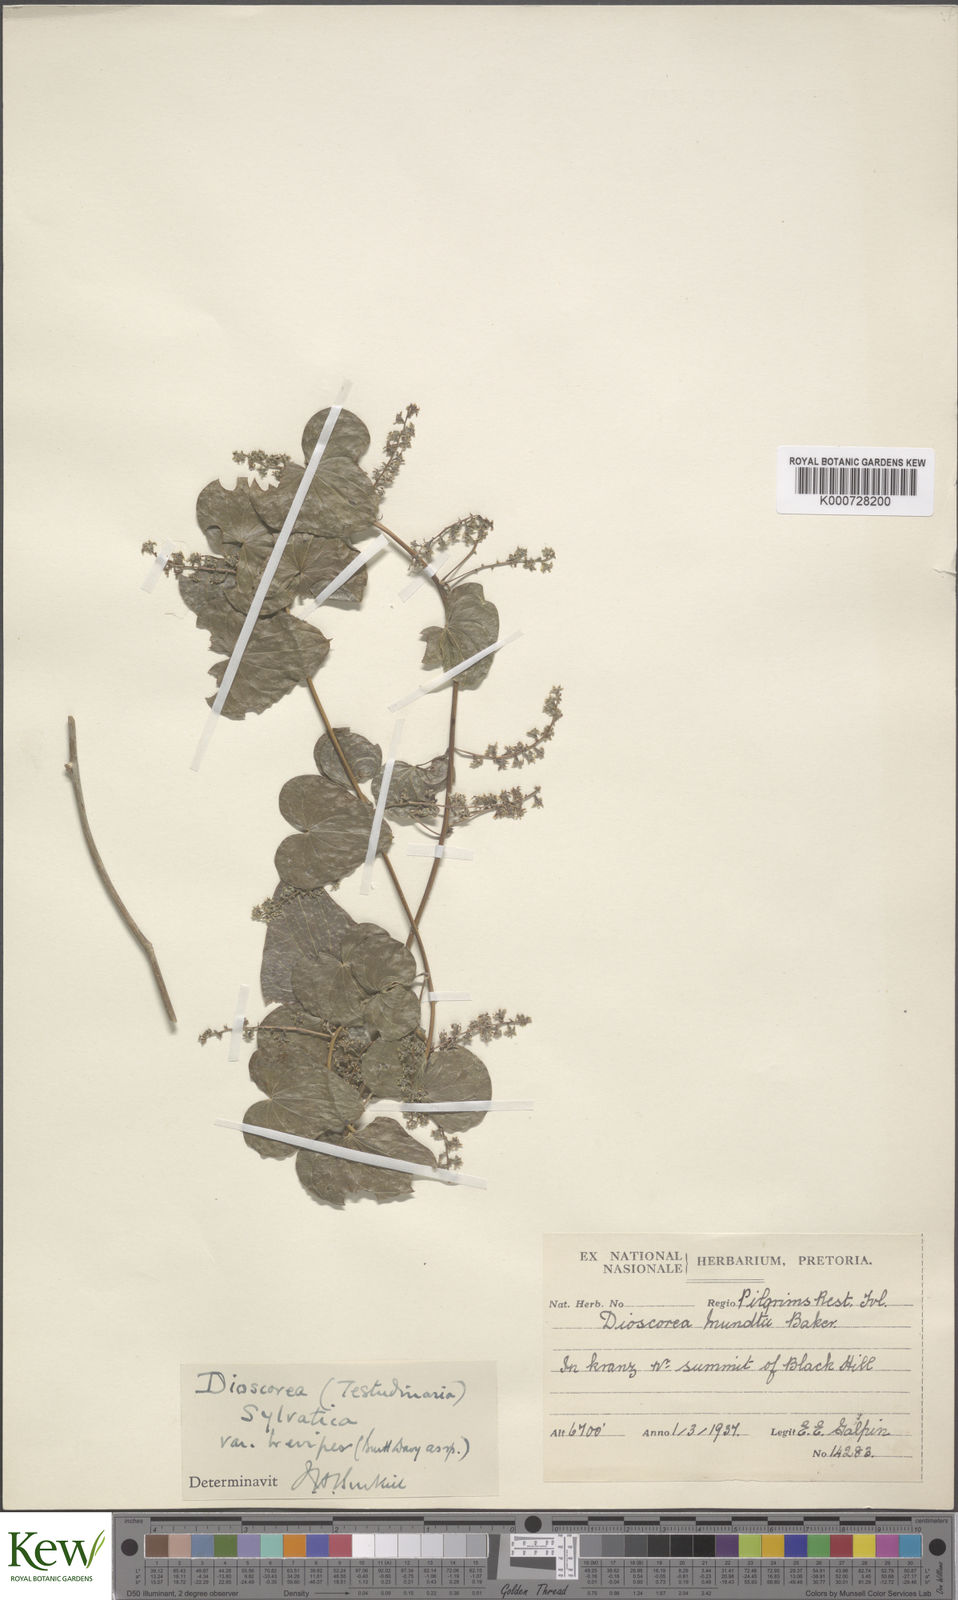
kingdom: Plantae
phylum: Tracheophyta
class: Liliopsida
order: Dioscoreales
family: Dioscoreaceae
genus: Dioscorea
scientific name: Dioscorea sylvatica
